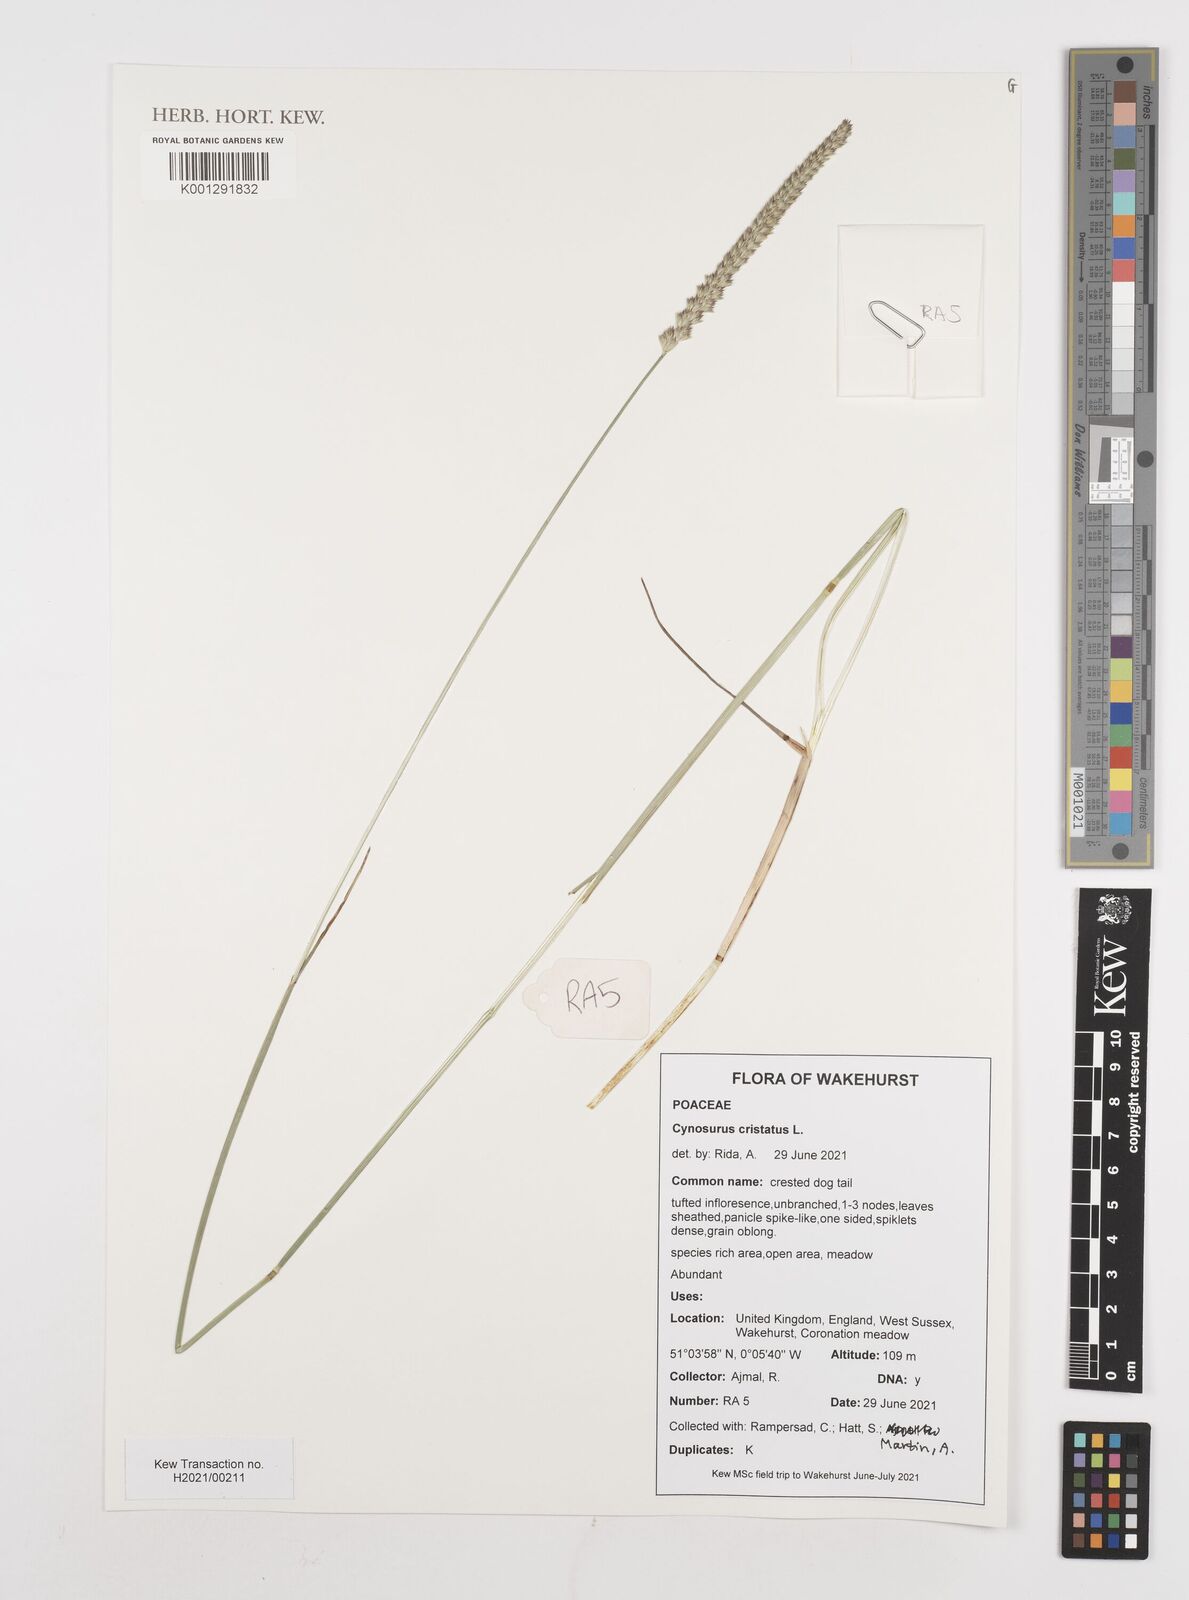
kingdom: Plantae
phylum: Tracheophyta
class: Liliopsida
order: Poales
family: Poaceae
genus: Cynosurus
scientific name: Cynosurus cristatus
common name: Crested dog's-tail
